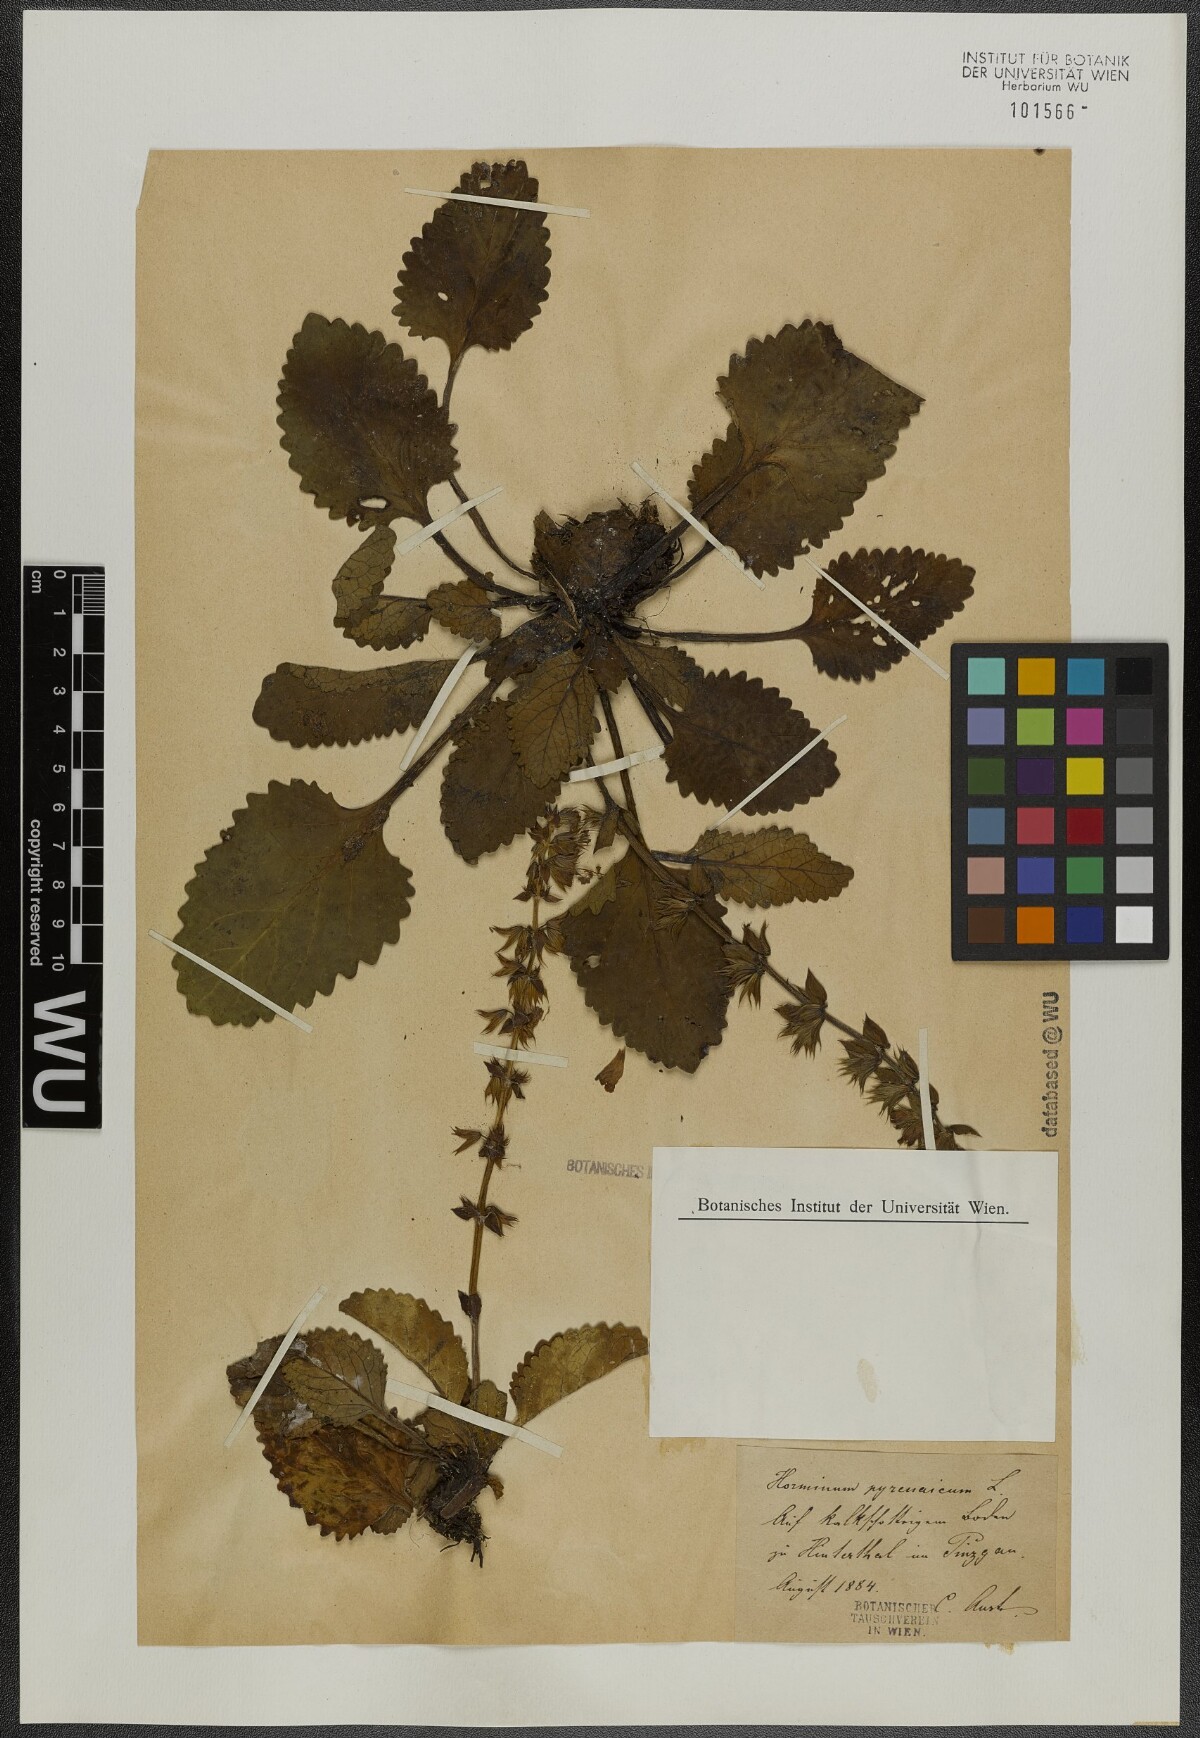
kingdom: Plantae
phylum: Tracheophyta
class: Magnoliopsida
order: Lamiales
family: Lamiaceae
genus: Horminum
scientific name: Horminum pyrenaicum
